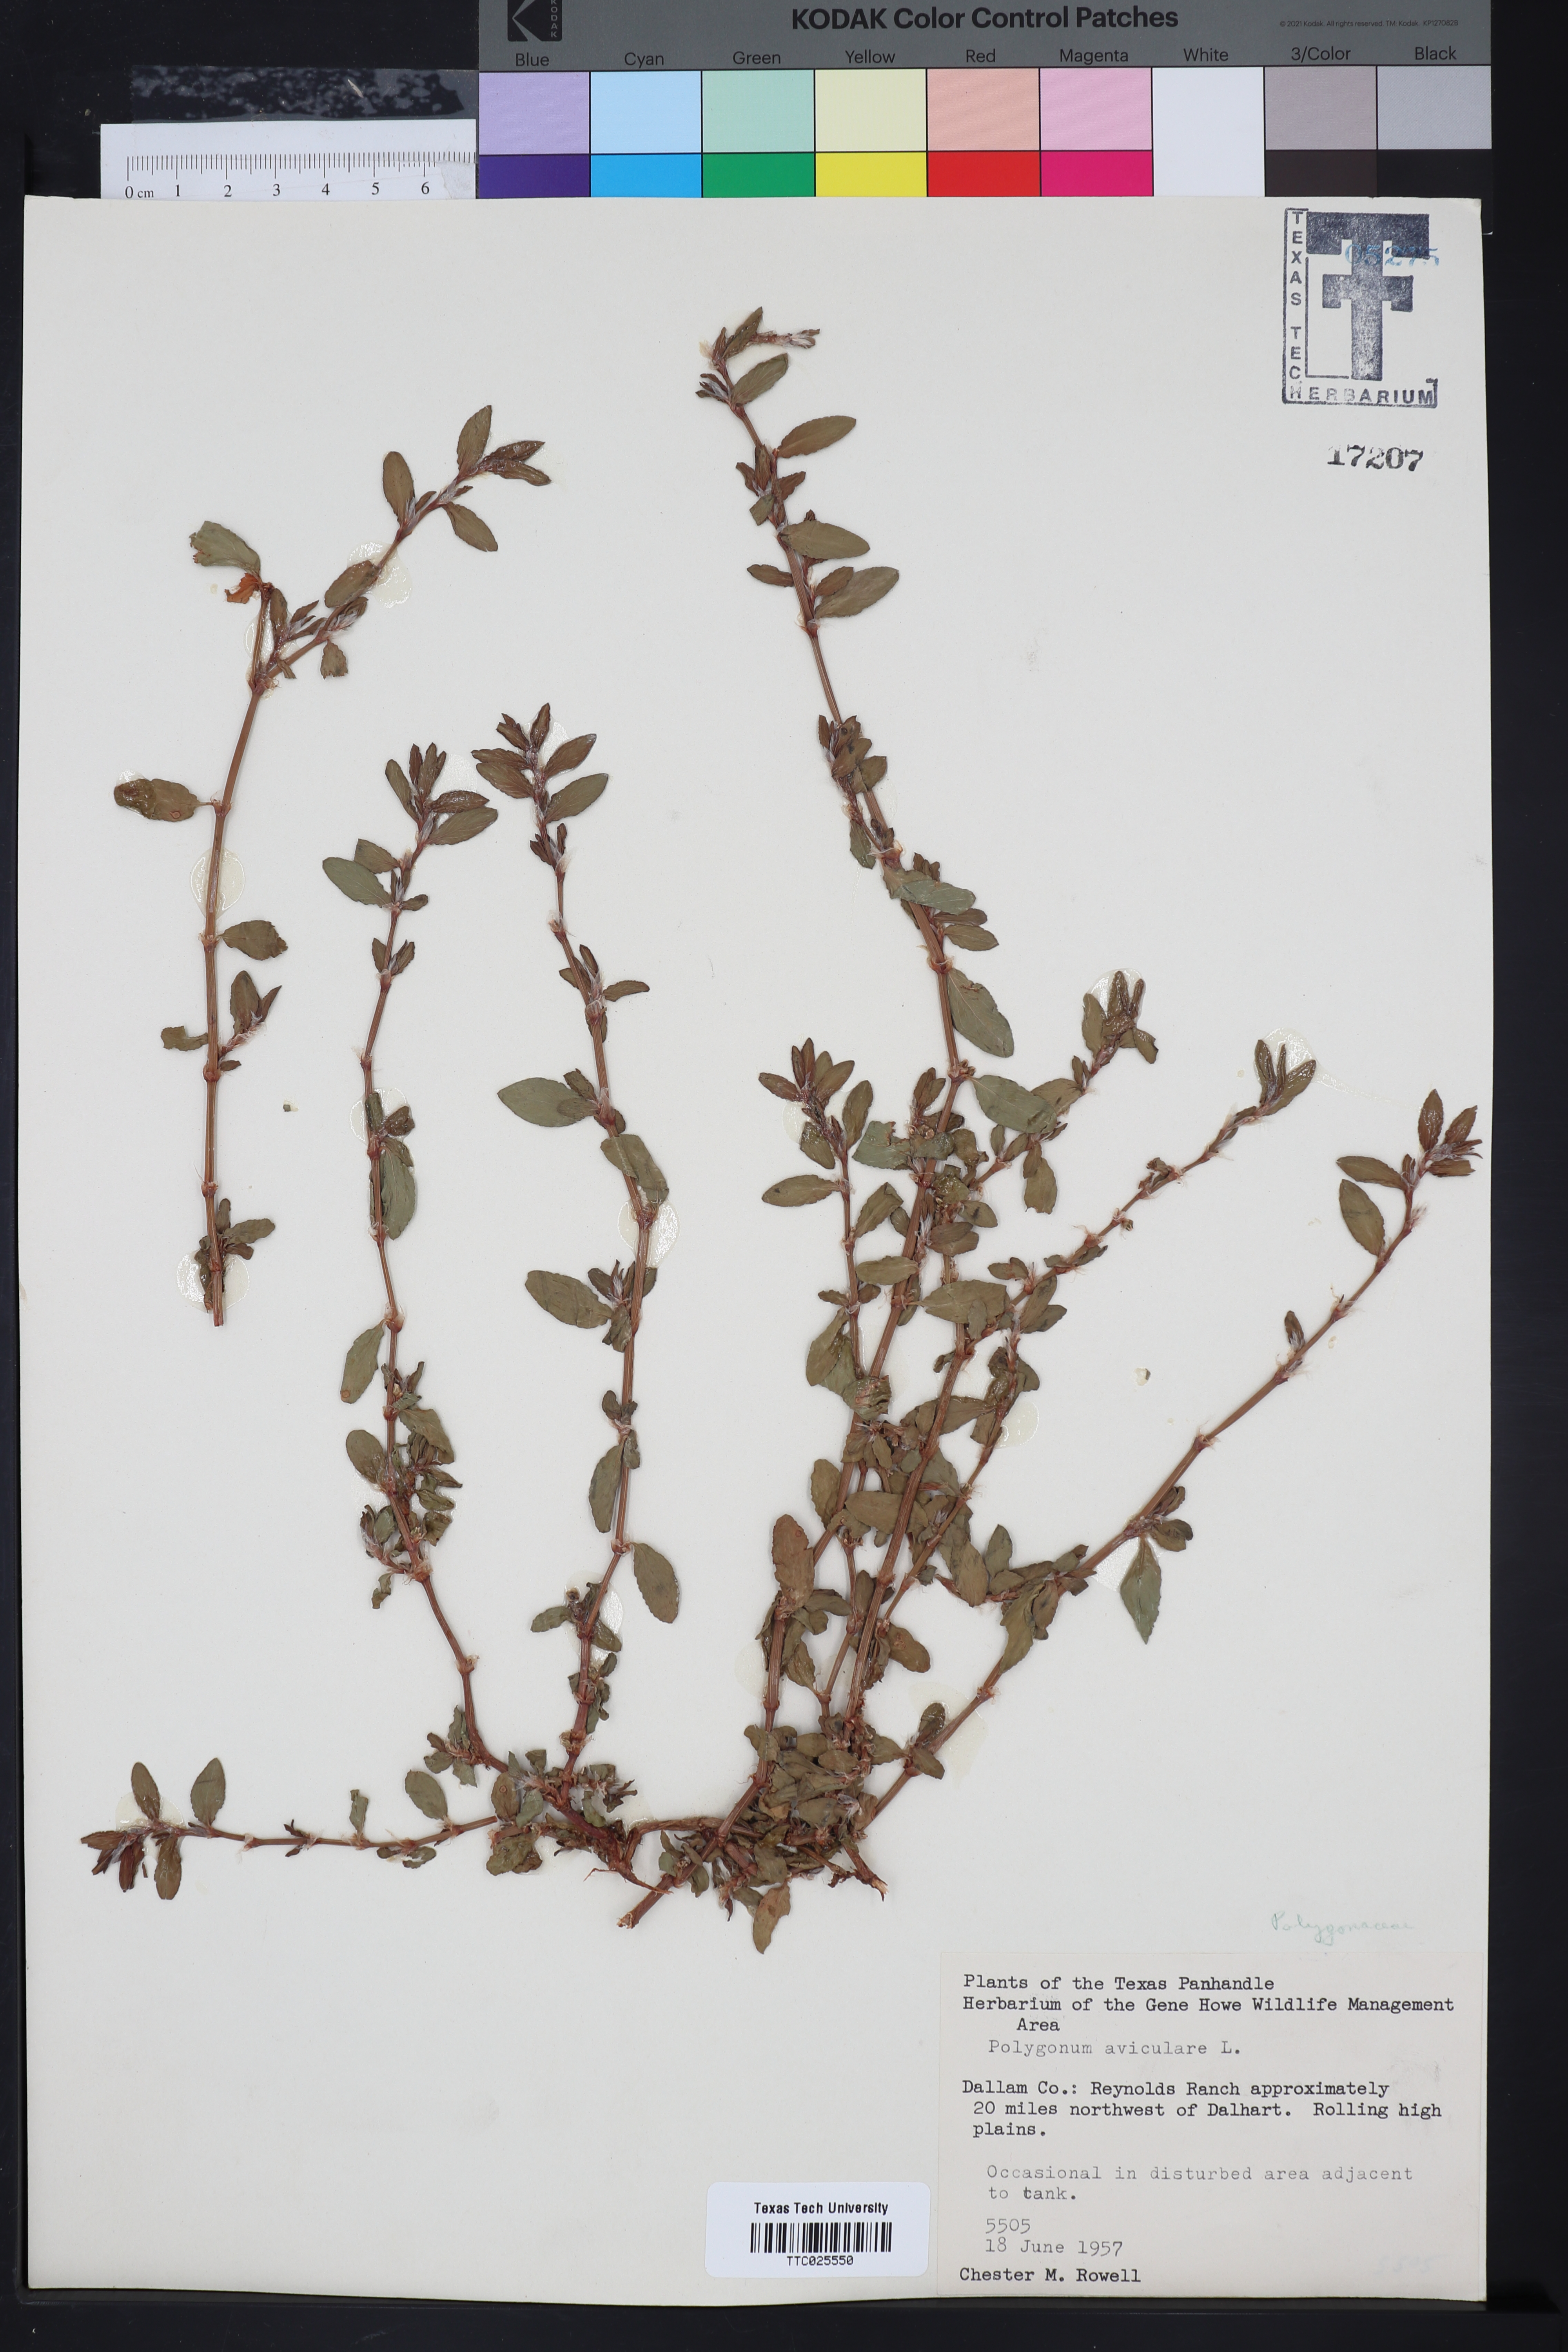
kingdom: Plantae
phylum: Tracheophyta
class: Magnoliopsida
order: Caryophyllales
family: Polygonaceae
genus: Polygonum
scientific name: Polygonum aviculare
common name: Prostrate knotweed
